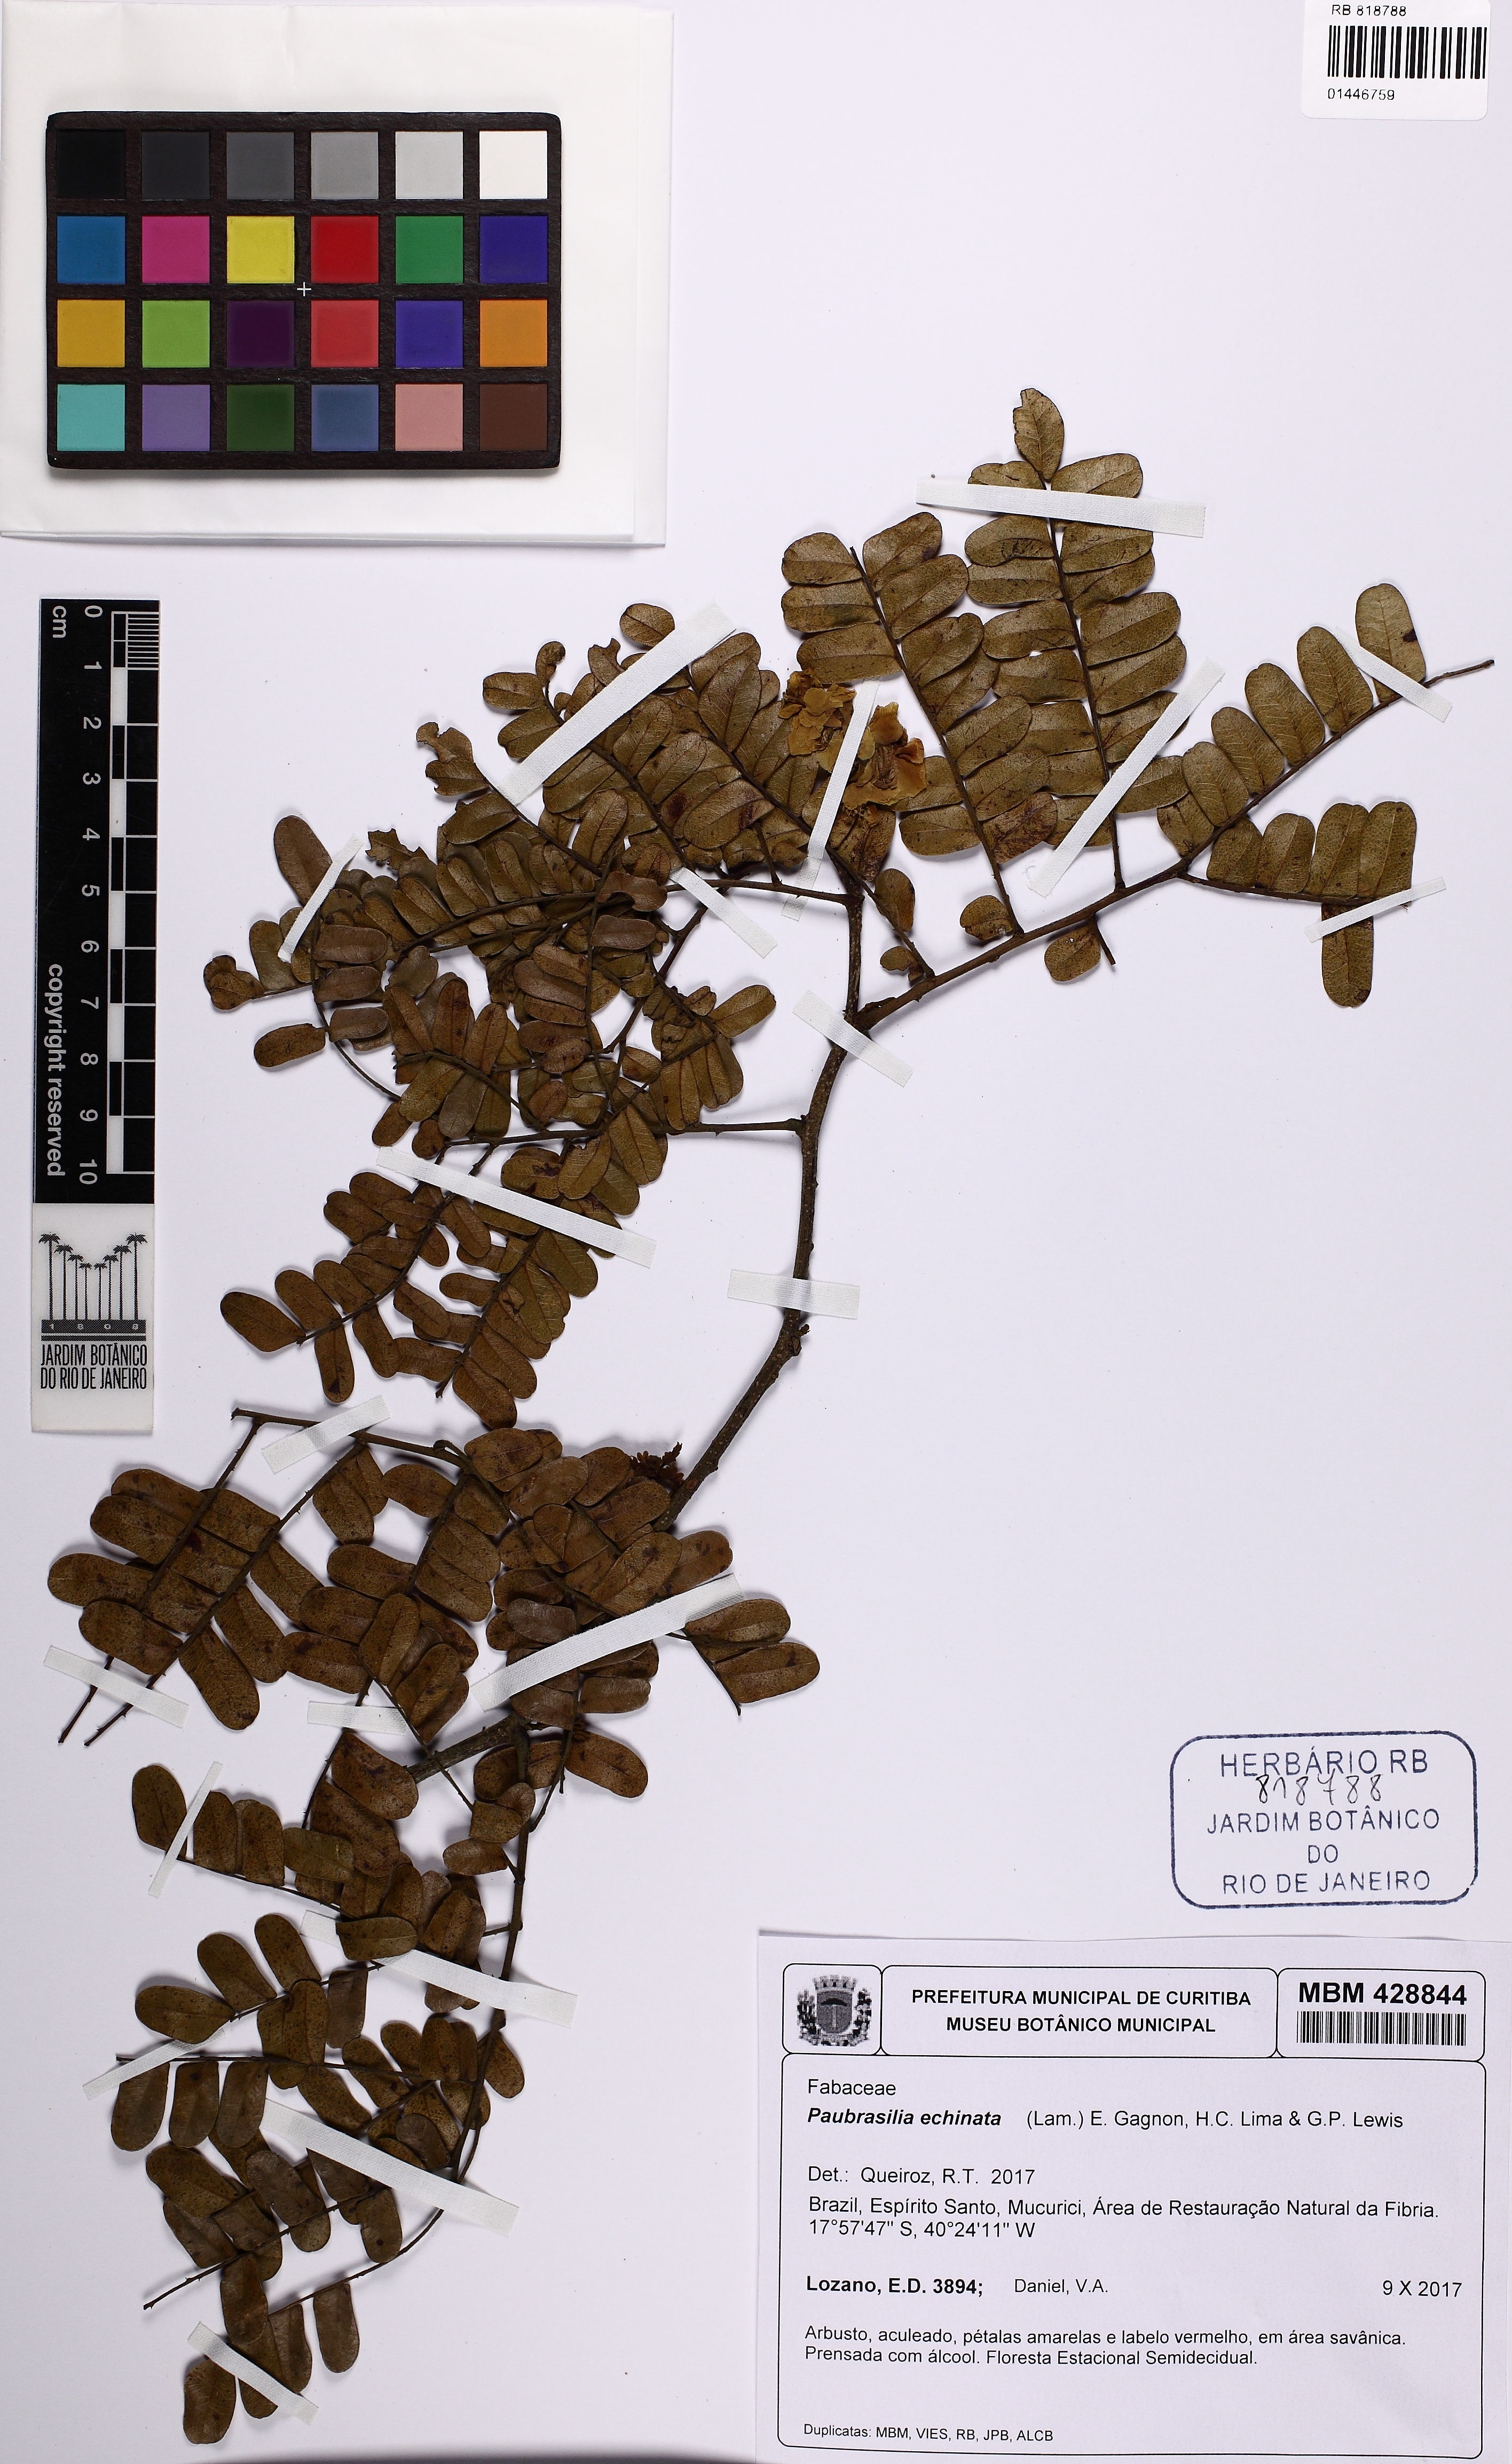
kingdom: Plantae
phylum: Tracheophyta
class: Magnoliopsida
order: Fabales
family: Fabaceae
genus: Paubrasilia
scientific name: Paubrasilia echinata
